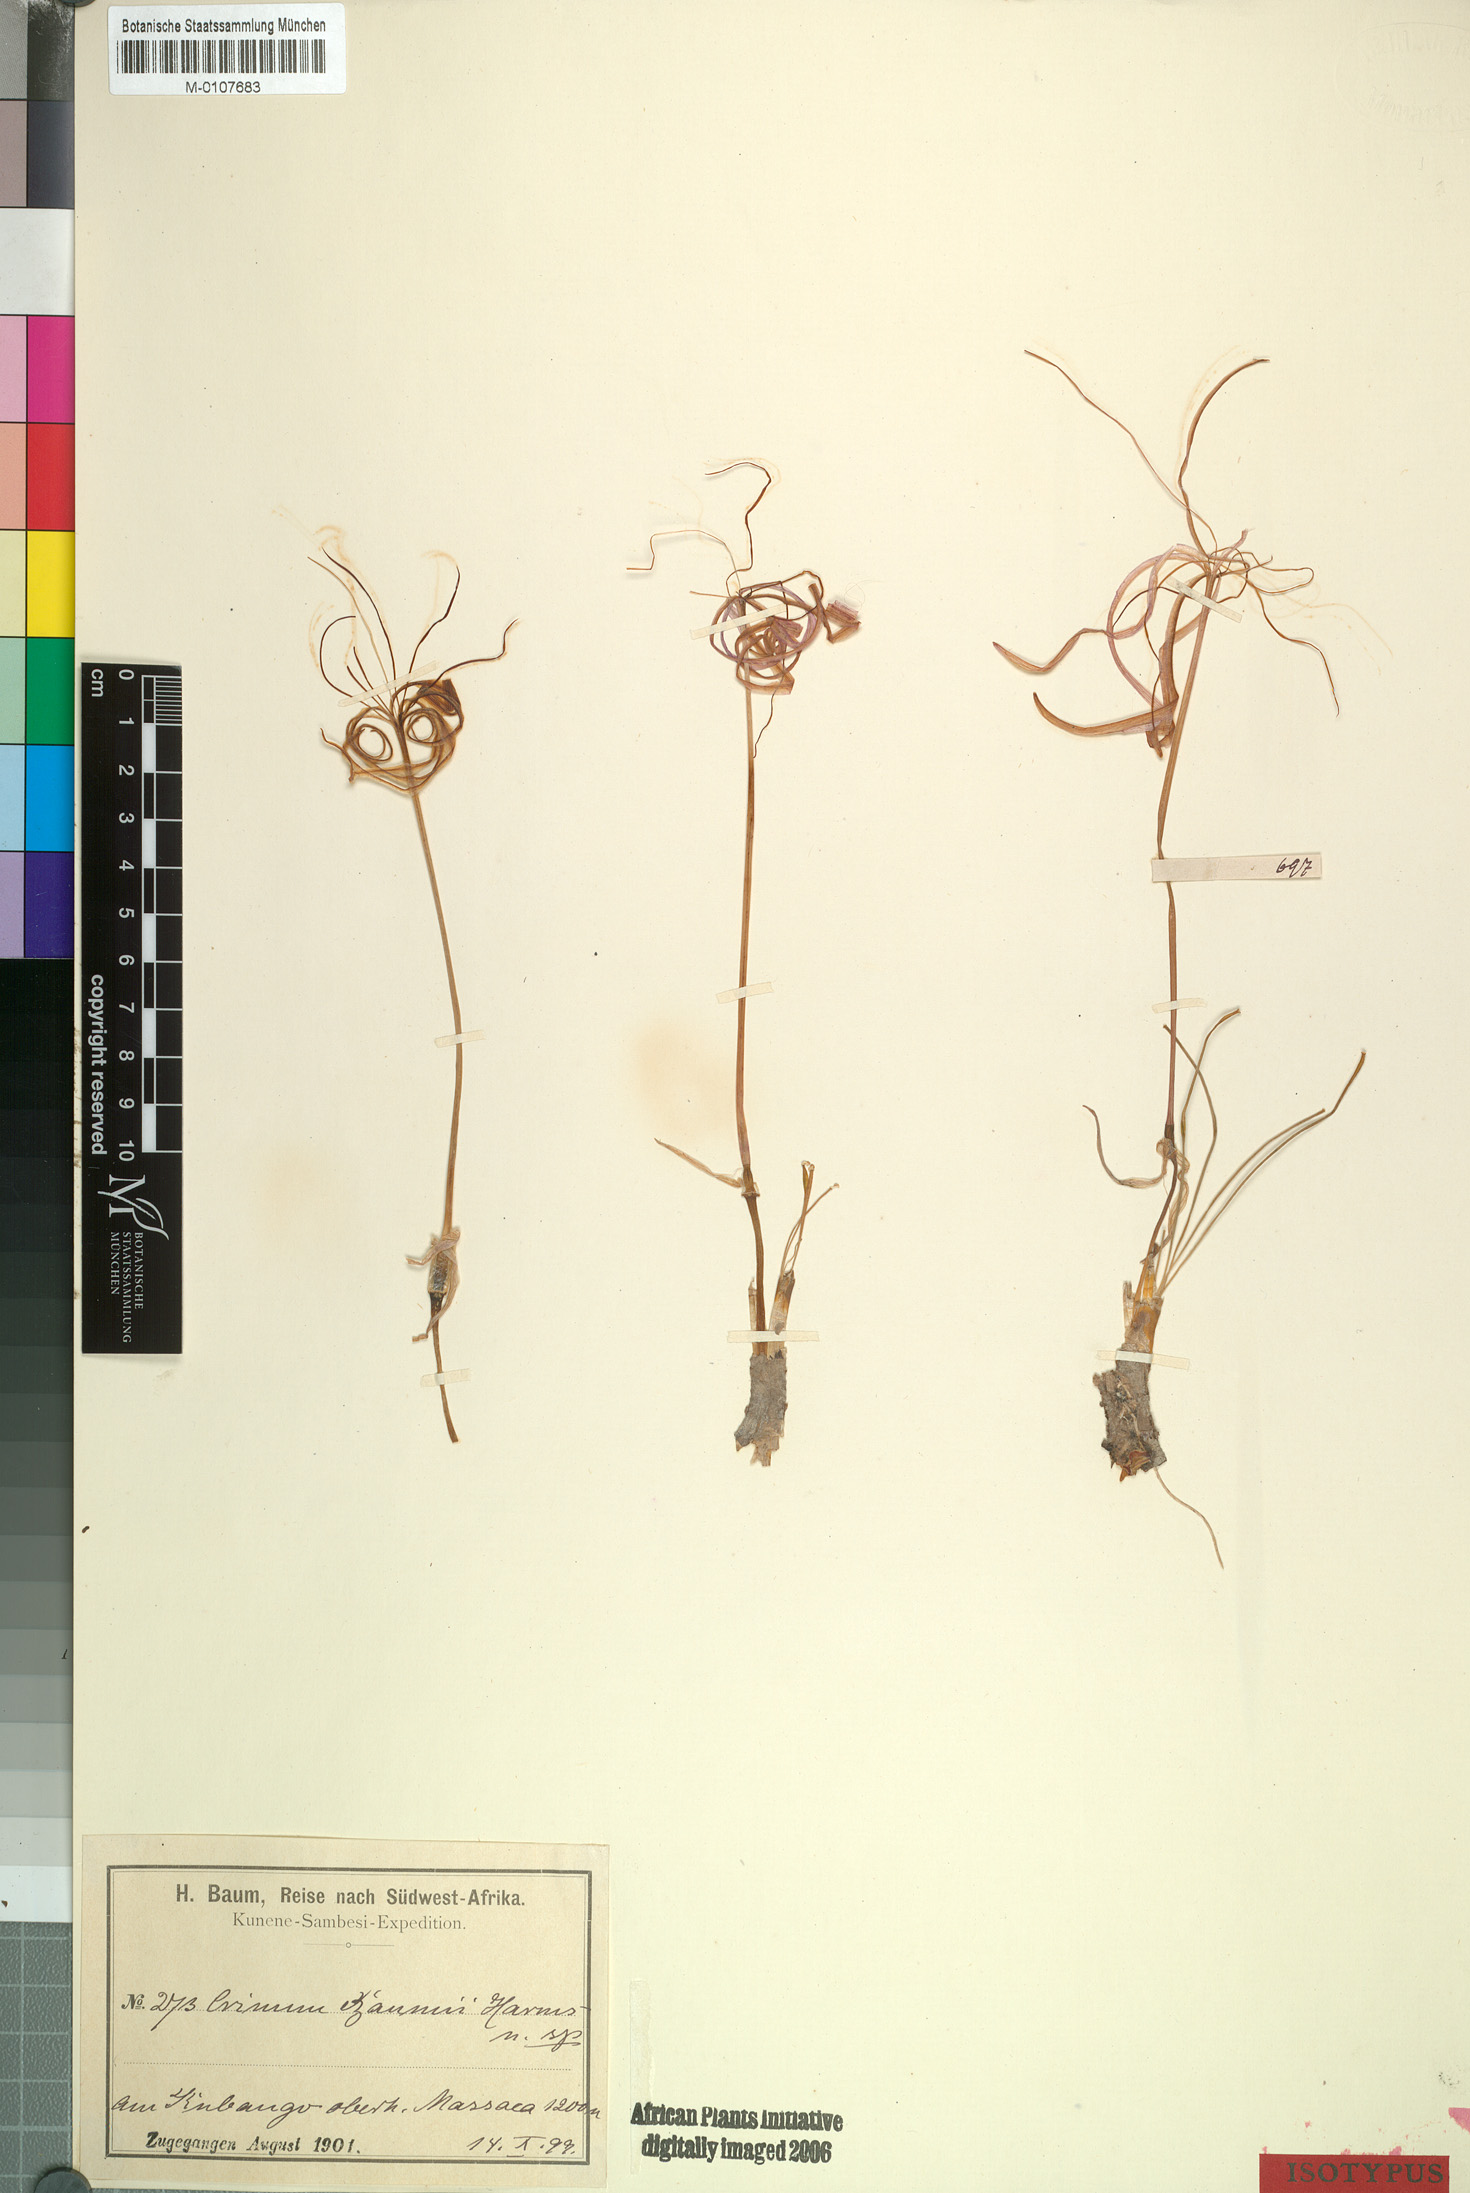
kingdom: Plantae
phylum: Tracheophyta
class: Liliopsida
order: Asparagales
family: Amaryllidaceae
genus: Ammocharis
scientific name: Ammocharis baumii
